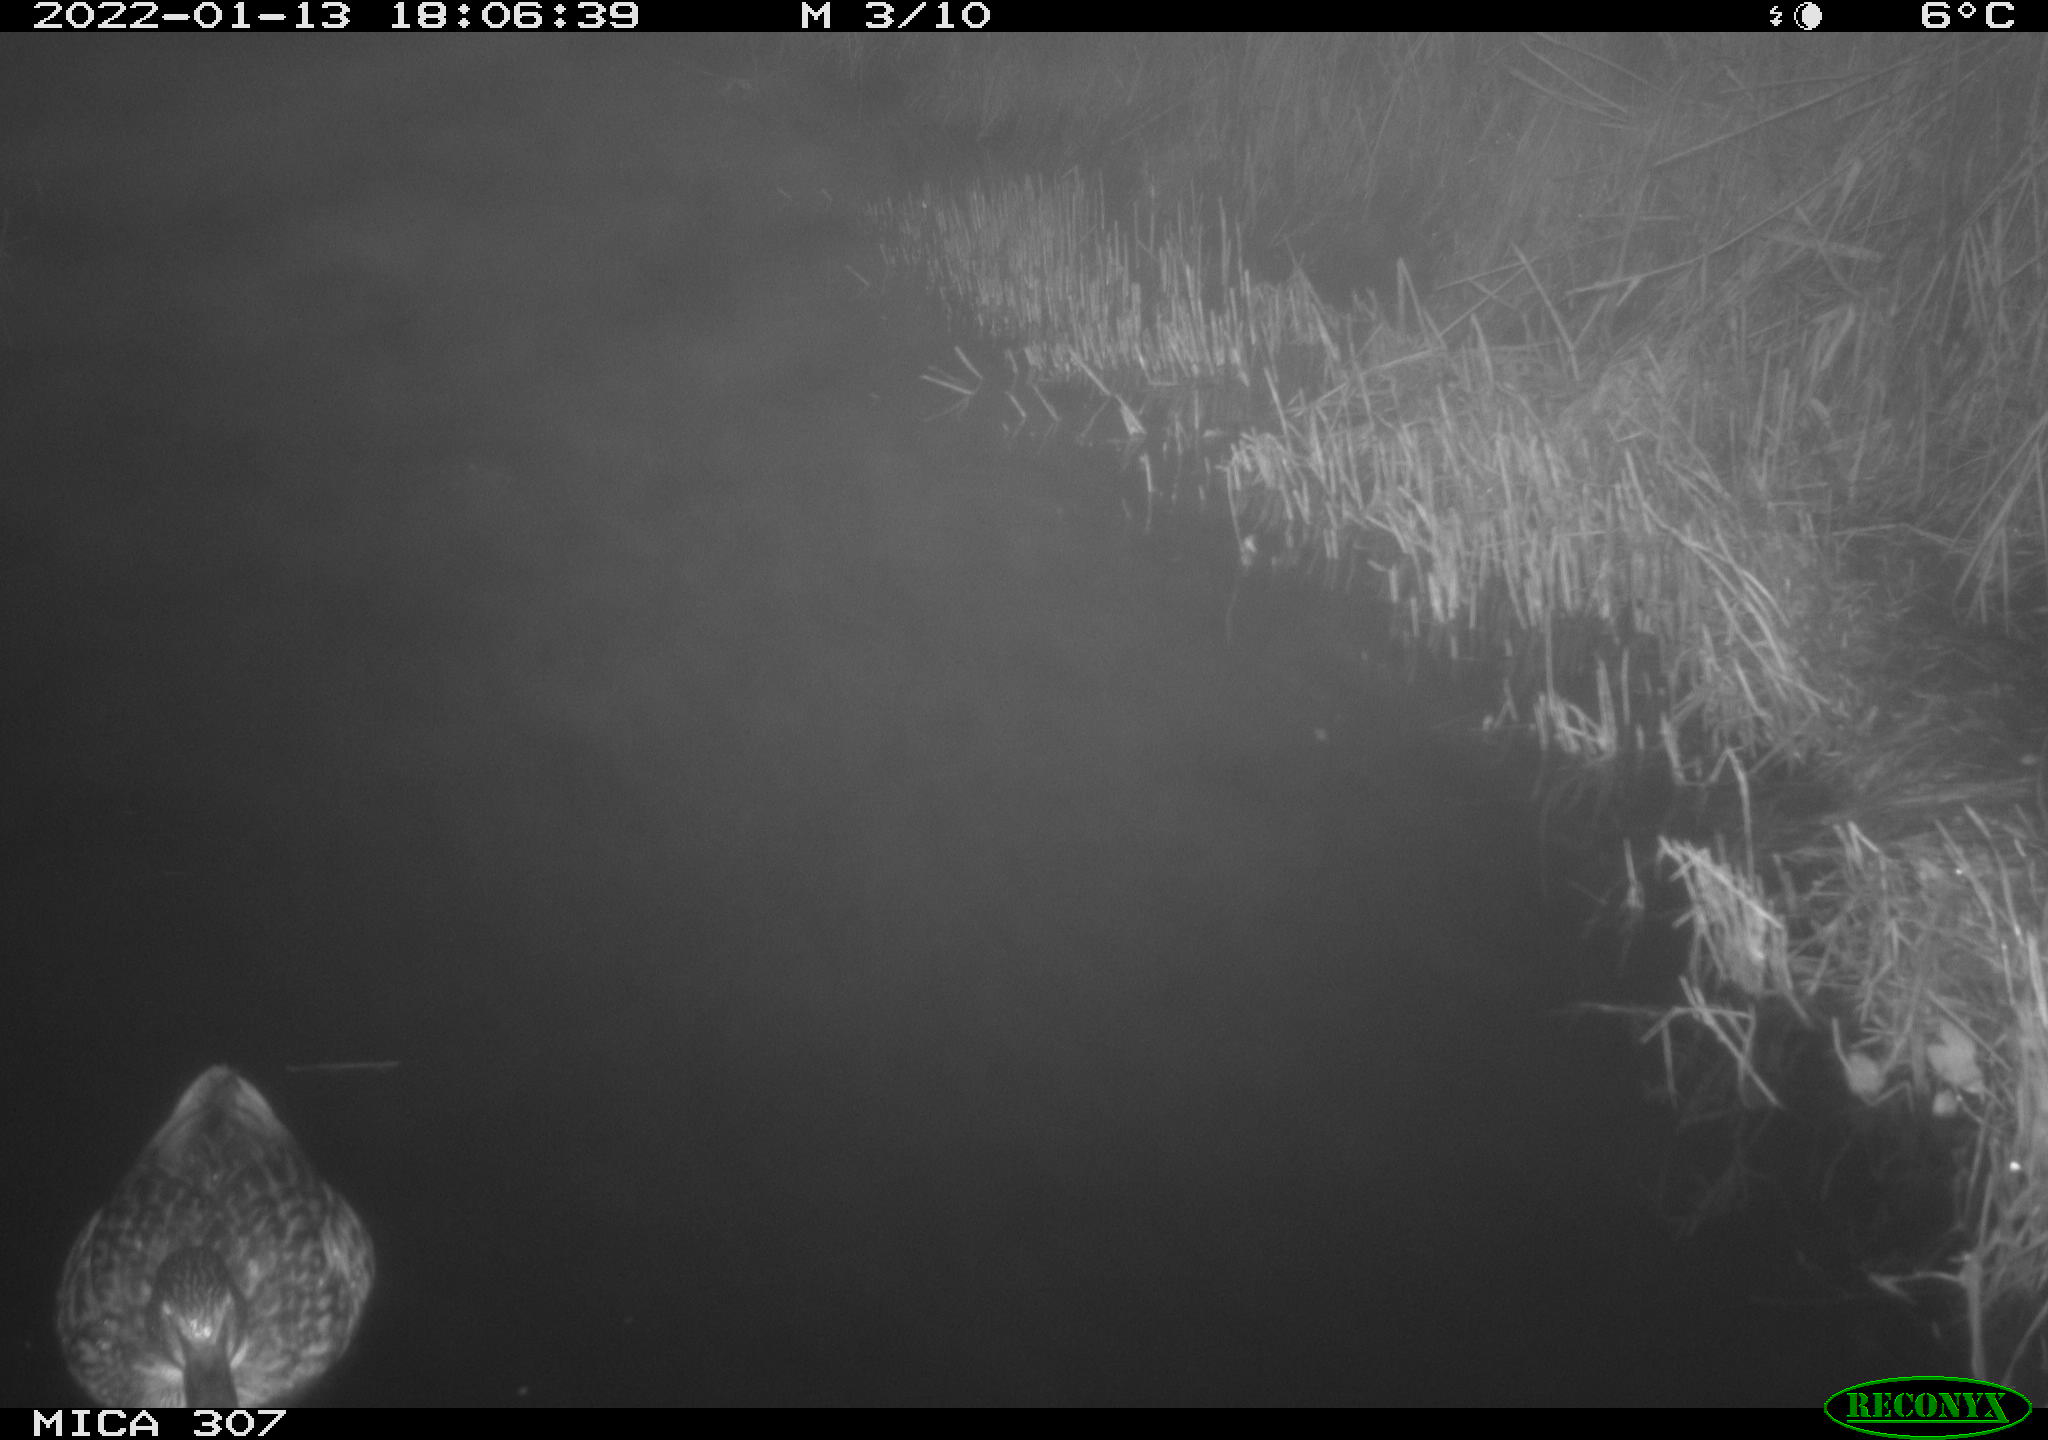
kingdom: Animalia
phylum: Chordata
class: Aves
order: Anseriformes
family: Anatidae
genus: Anas
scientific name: Anas
